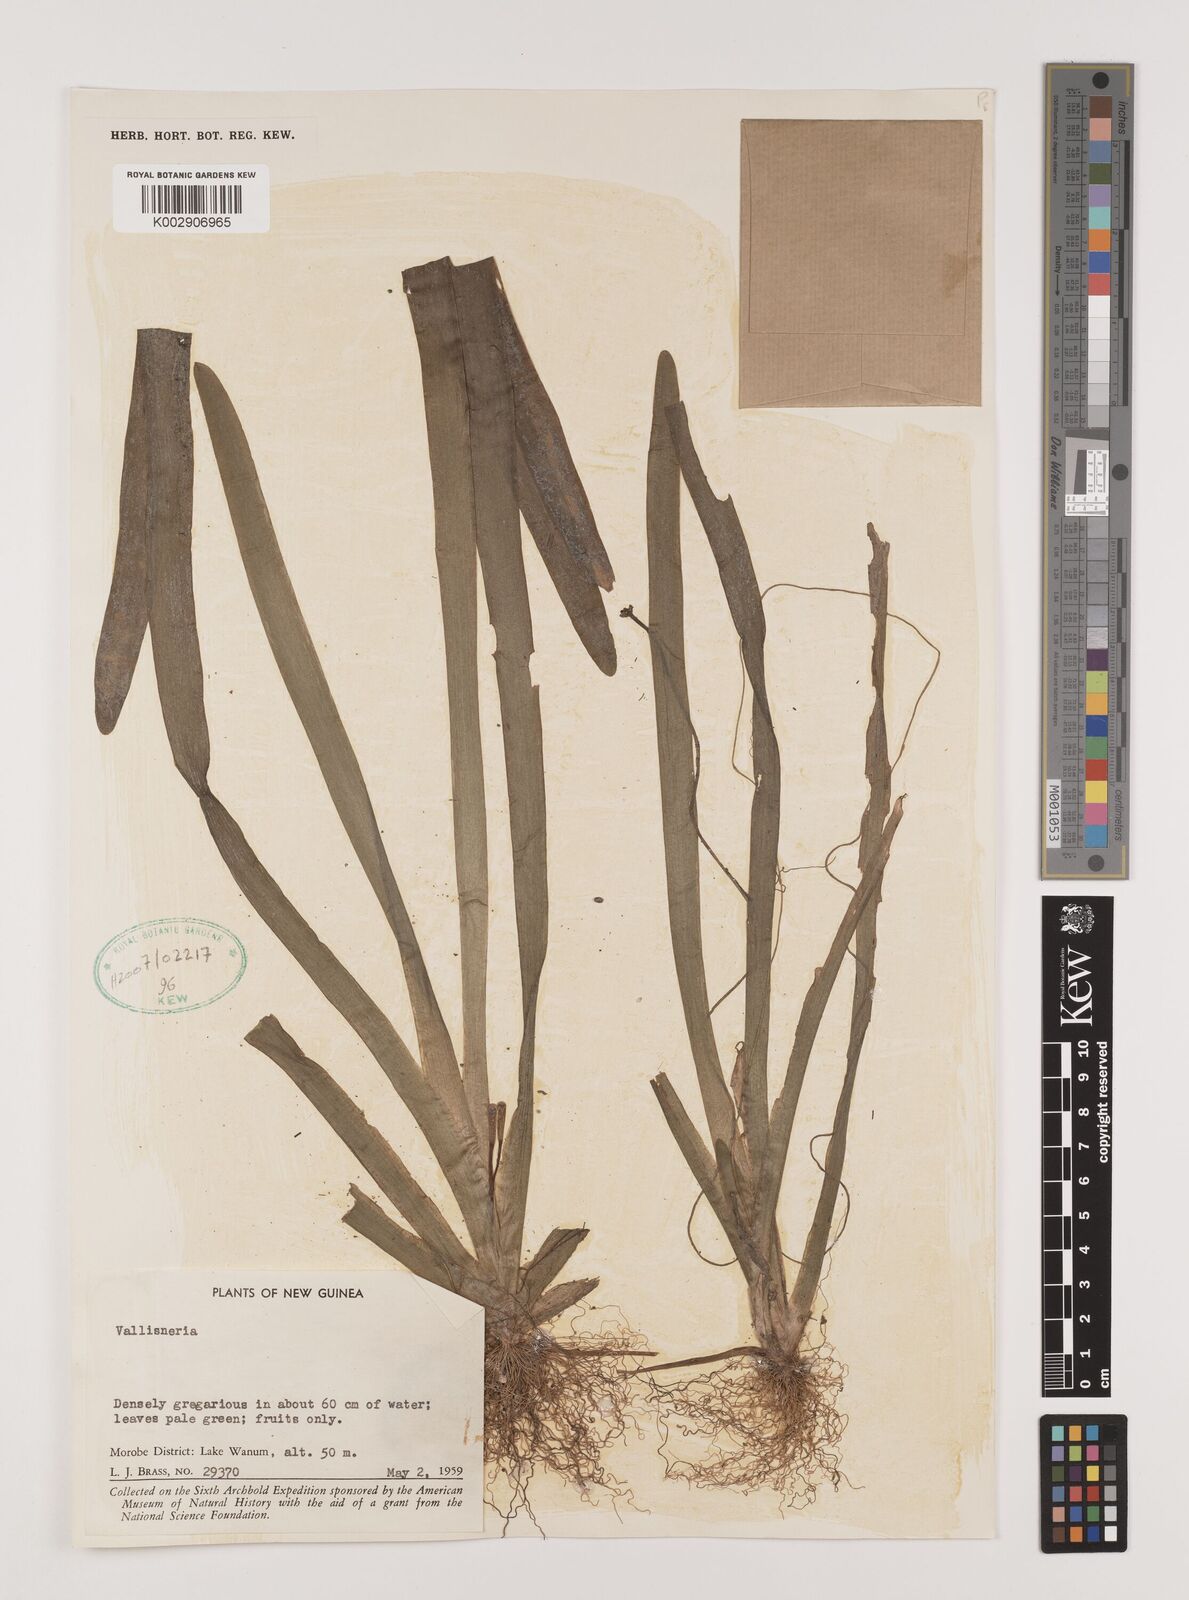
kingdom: Plantae
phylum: Tracheophyta
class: Liliopsida
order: Alismatales
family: Hydrocharitaceae
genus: Vallisneria
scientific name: Vallisneria
